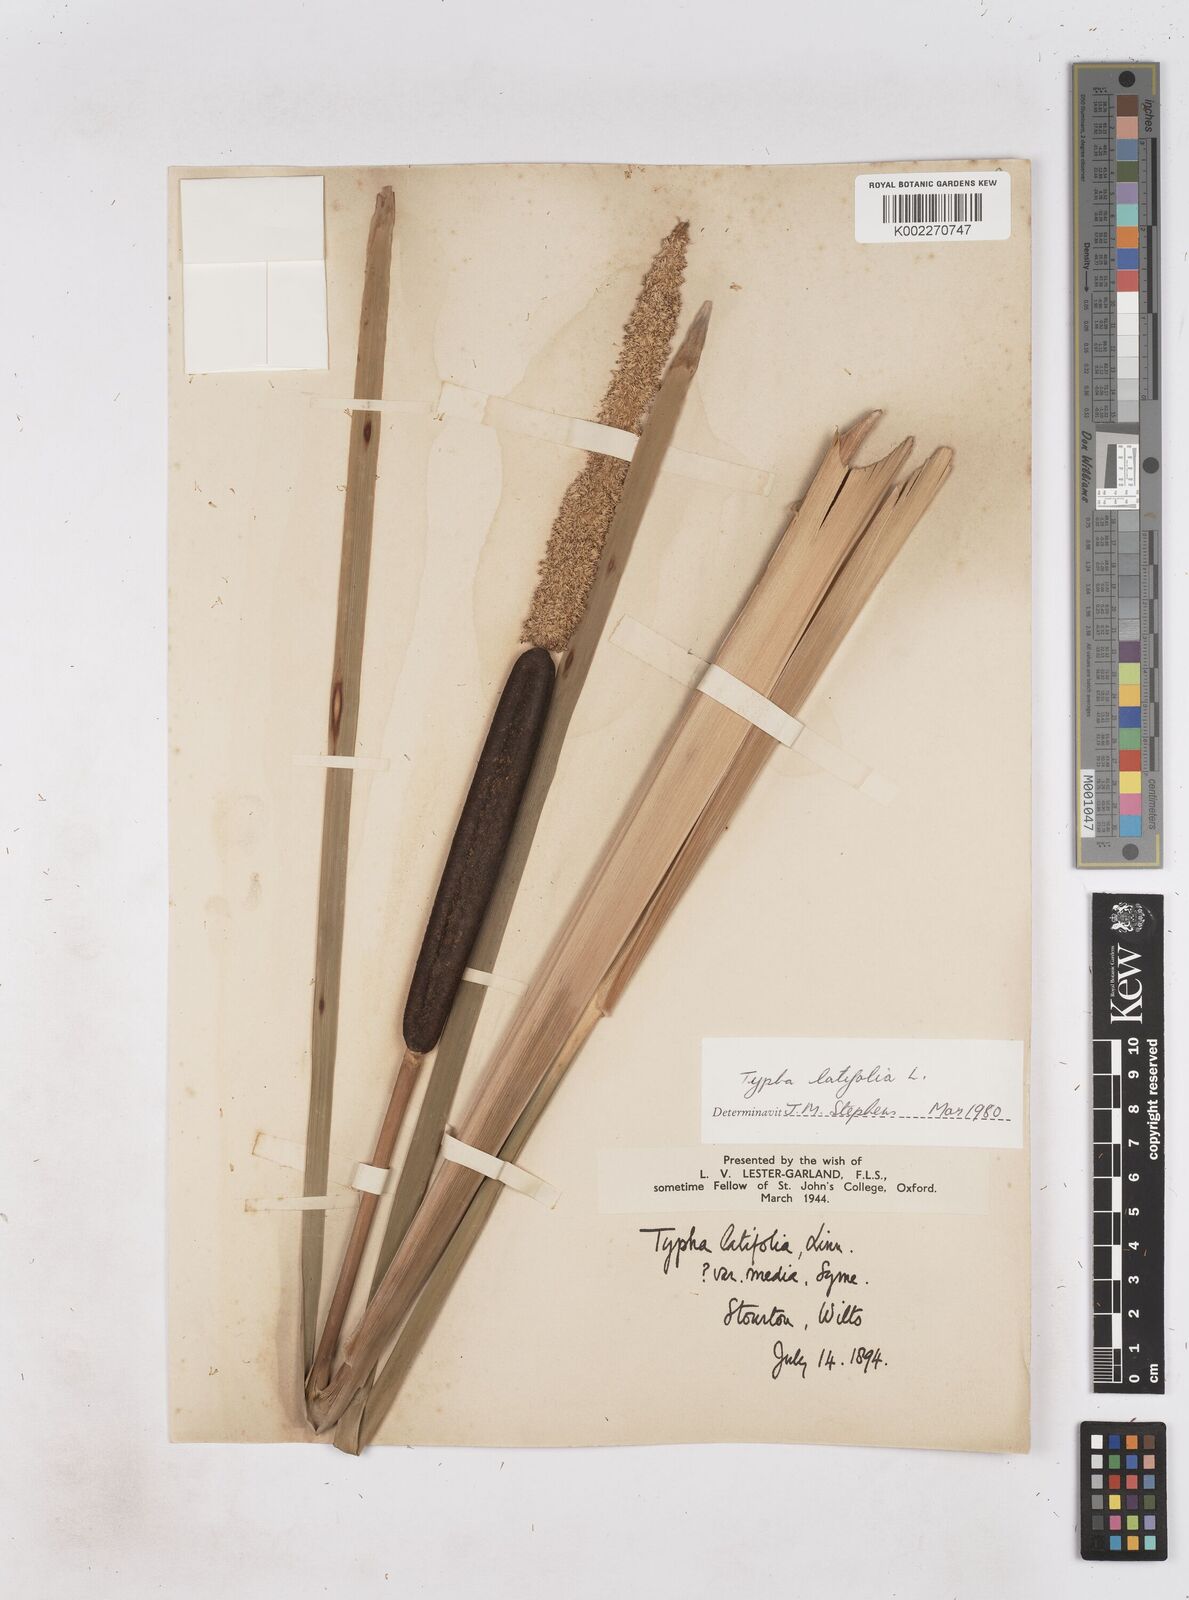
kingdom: Plantae
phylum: Tracheophyta
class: Liliopsida
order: Poales
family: Typhaceae
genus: Typha
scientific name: Typha latifolia
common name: Broadleaf cattail
